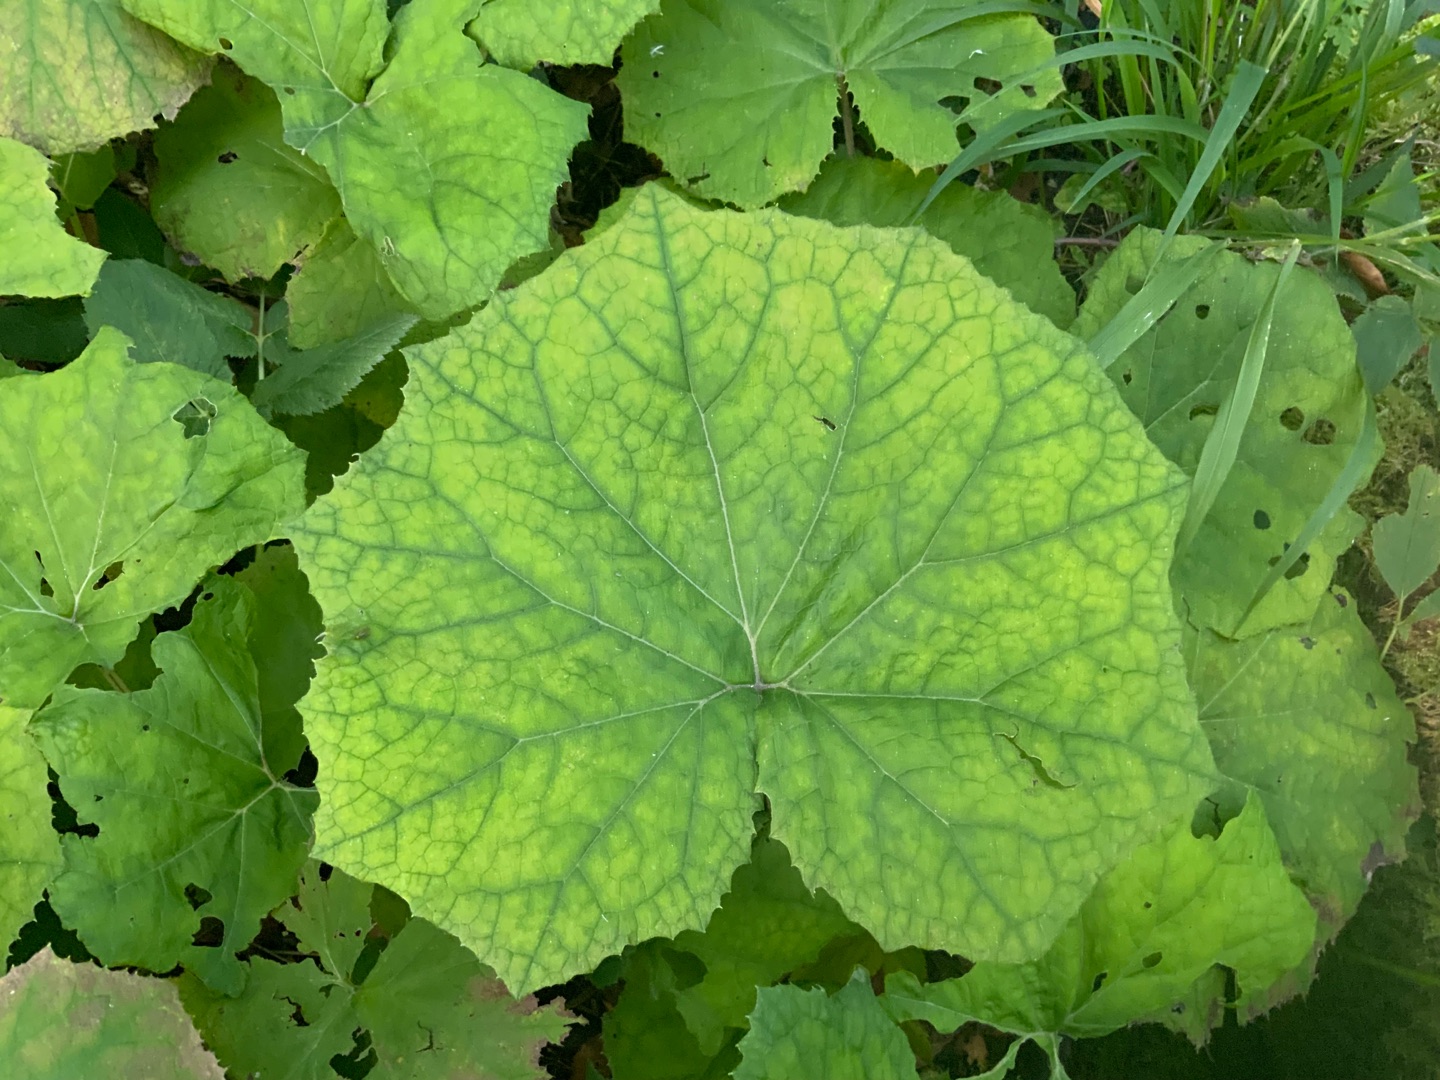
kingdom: Plantae
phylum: Tracheophyta
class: Magnoliopsida
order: Asterales
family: Asteraceae
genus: Petasites
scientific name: Petasites albus
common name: Hvid hestehov
